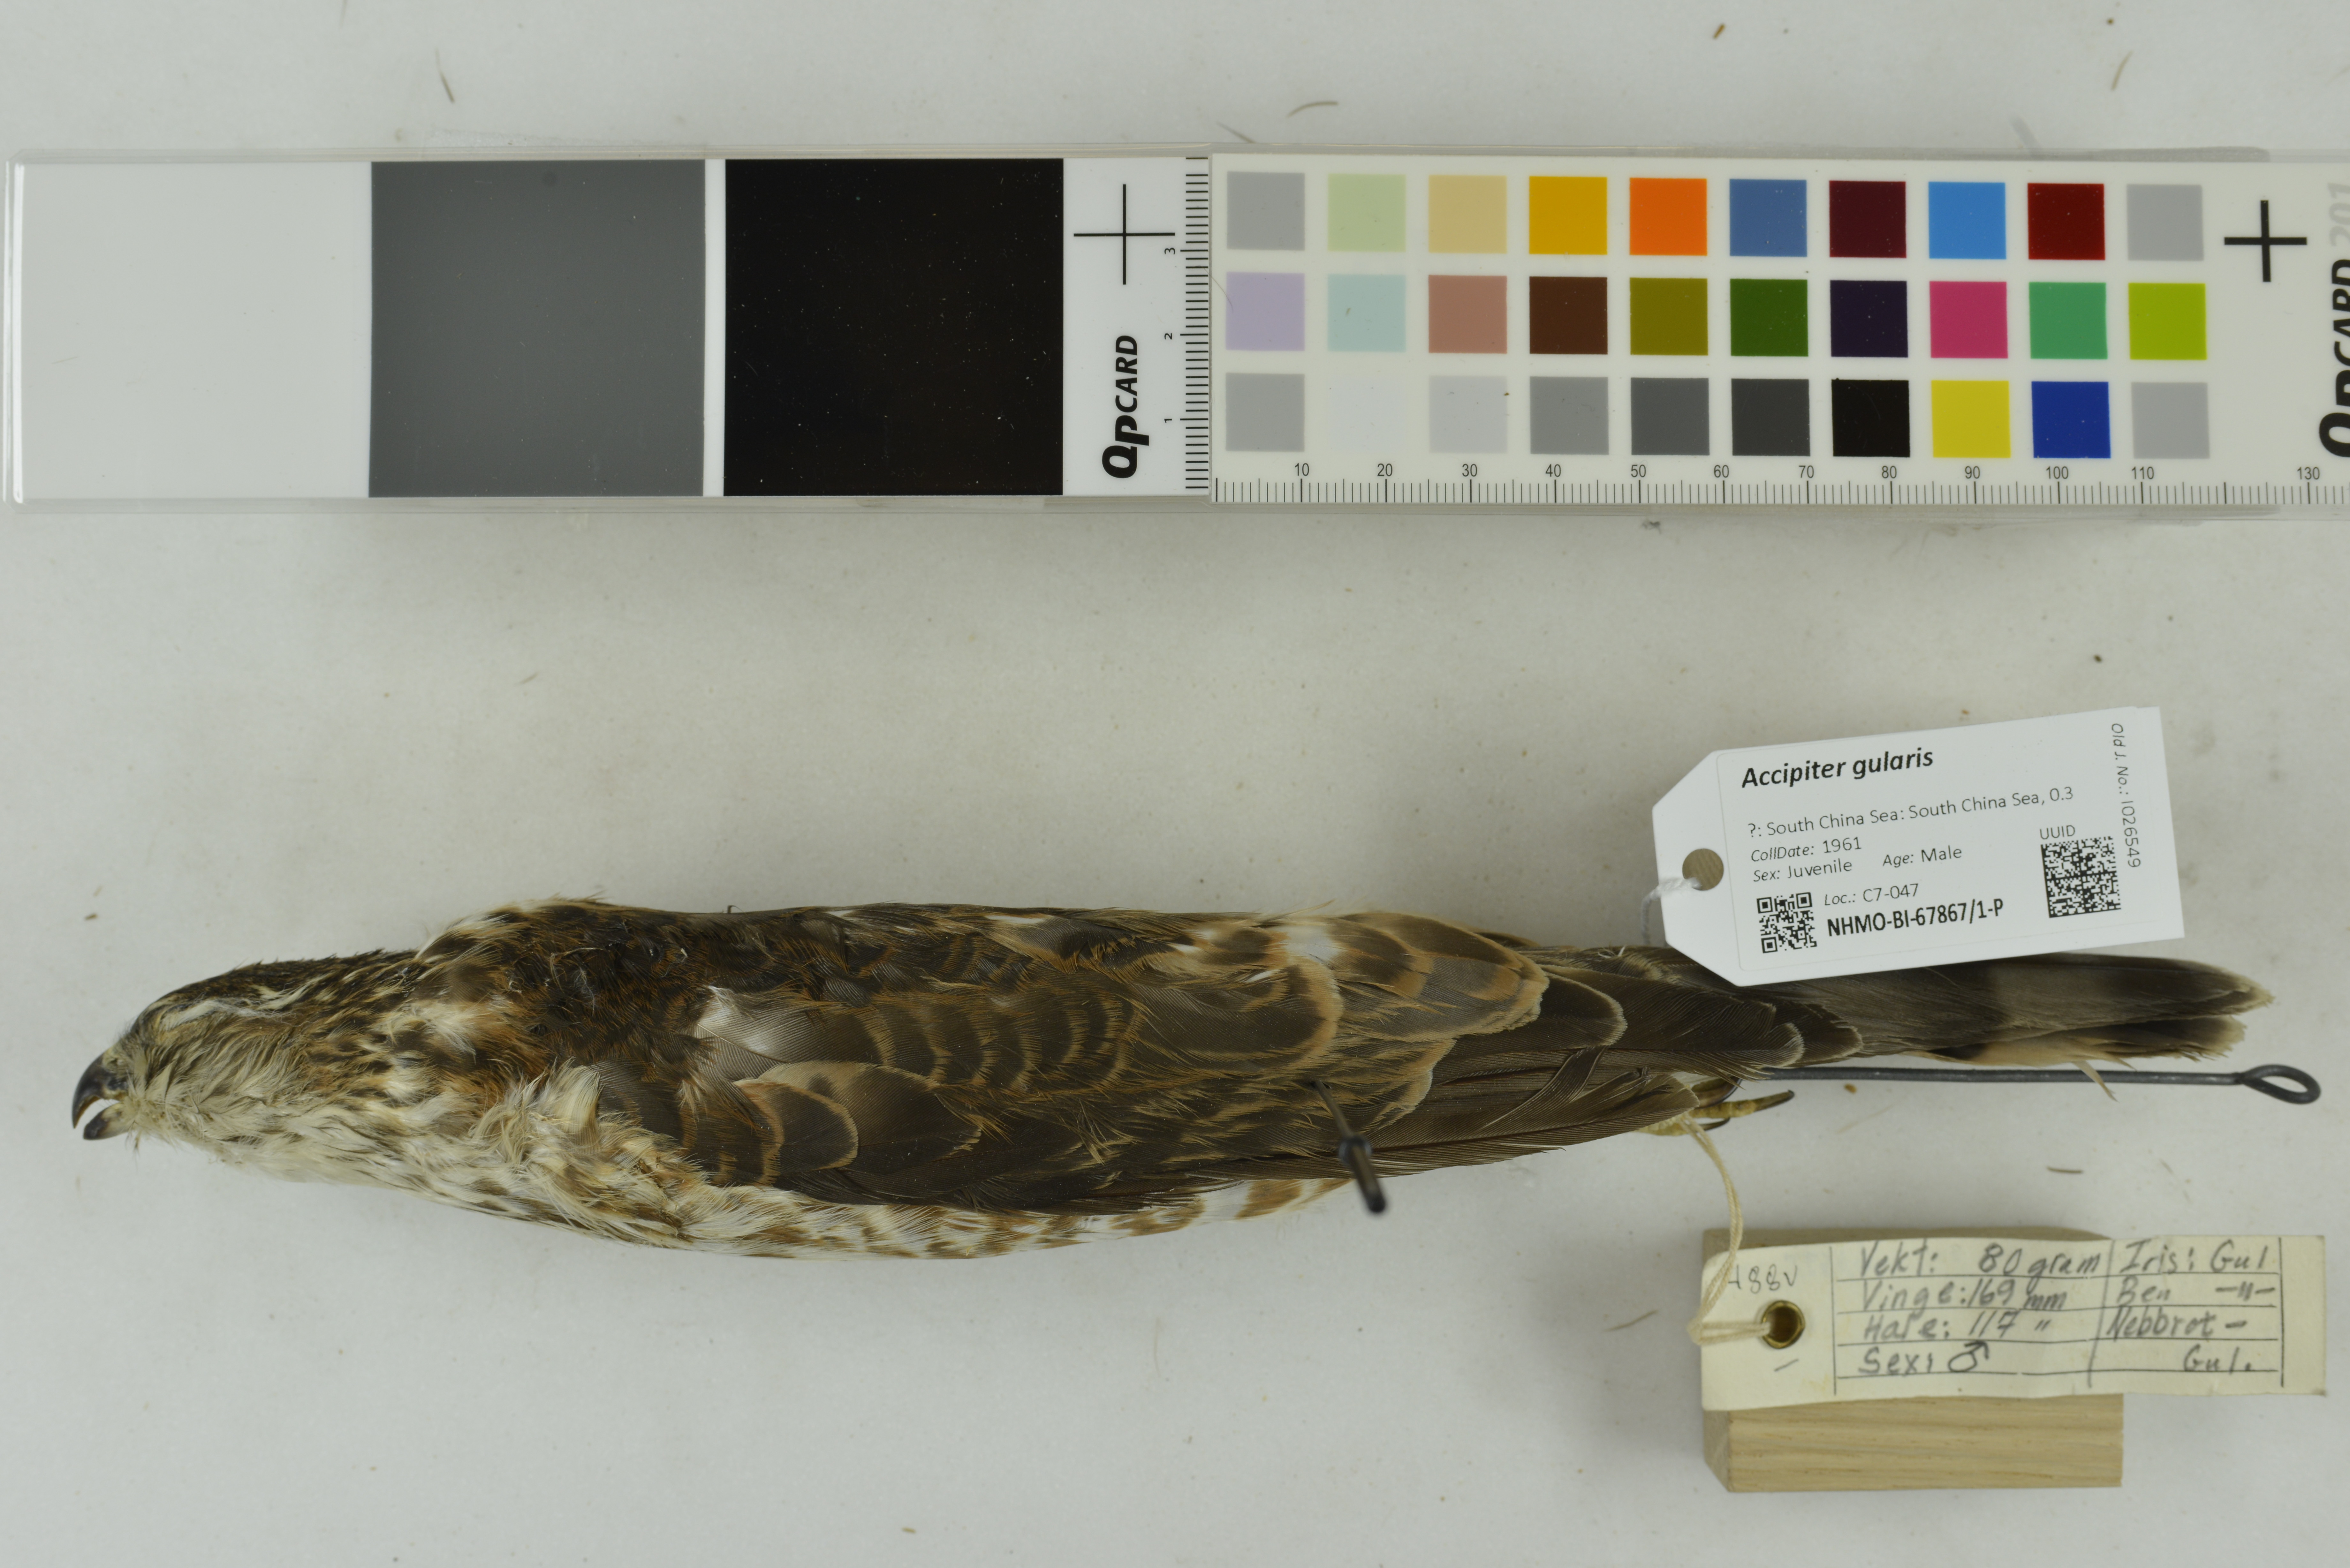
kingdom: Animalia
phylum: Chordata
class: Aves
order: Accipitriformes
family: Accipitridae
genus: Accipiter
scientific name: Accipiter gularis
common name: Japanese sparrowhawk
